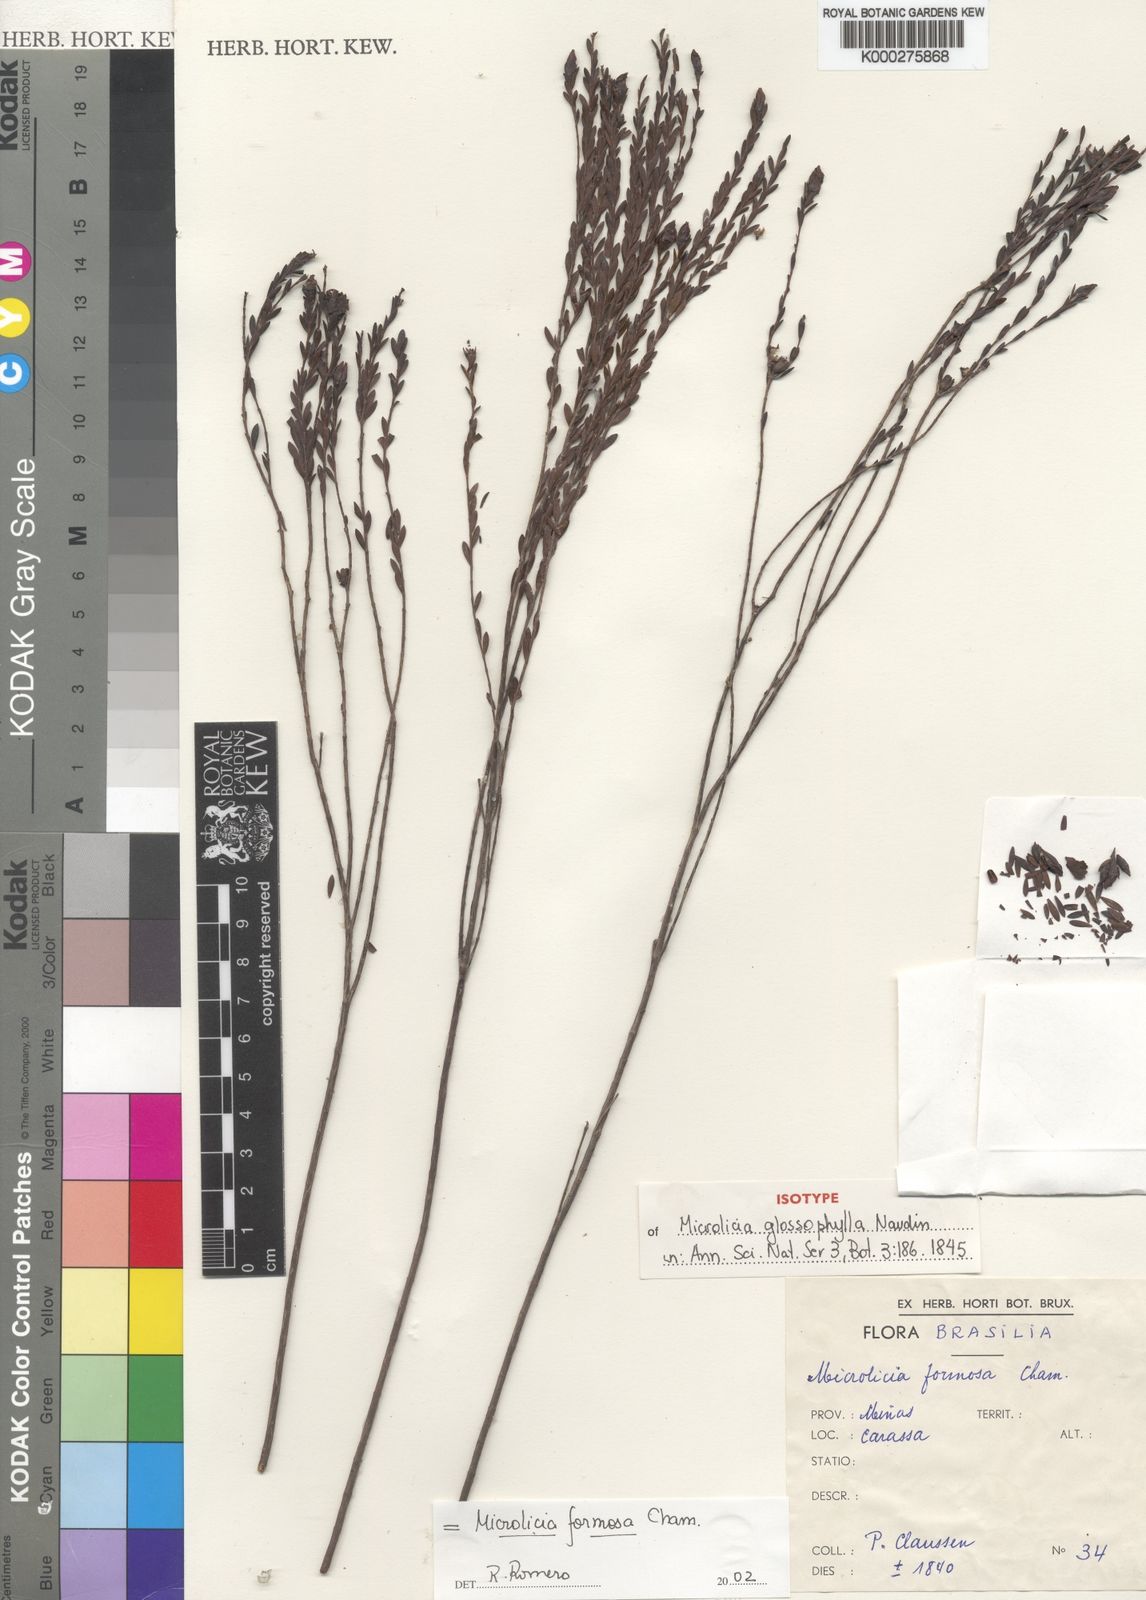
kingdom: Plantae
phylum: Tracheophyta
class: Magnoliopsida
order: Myrtales
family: Melastomataceae
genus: Microlicia
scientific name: Microlicia glossophylla
